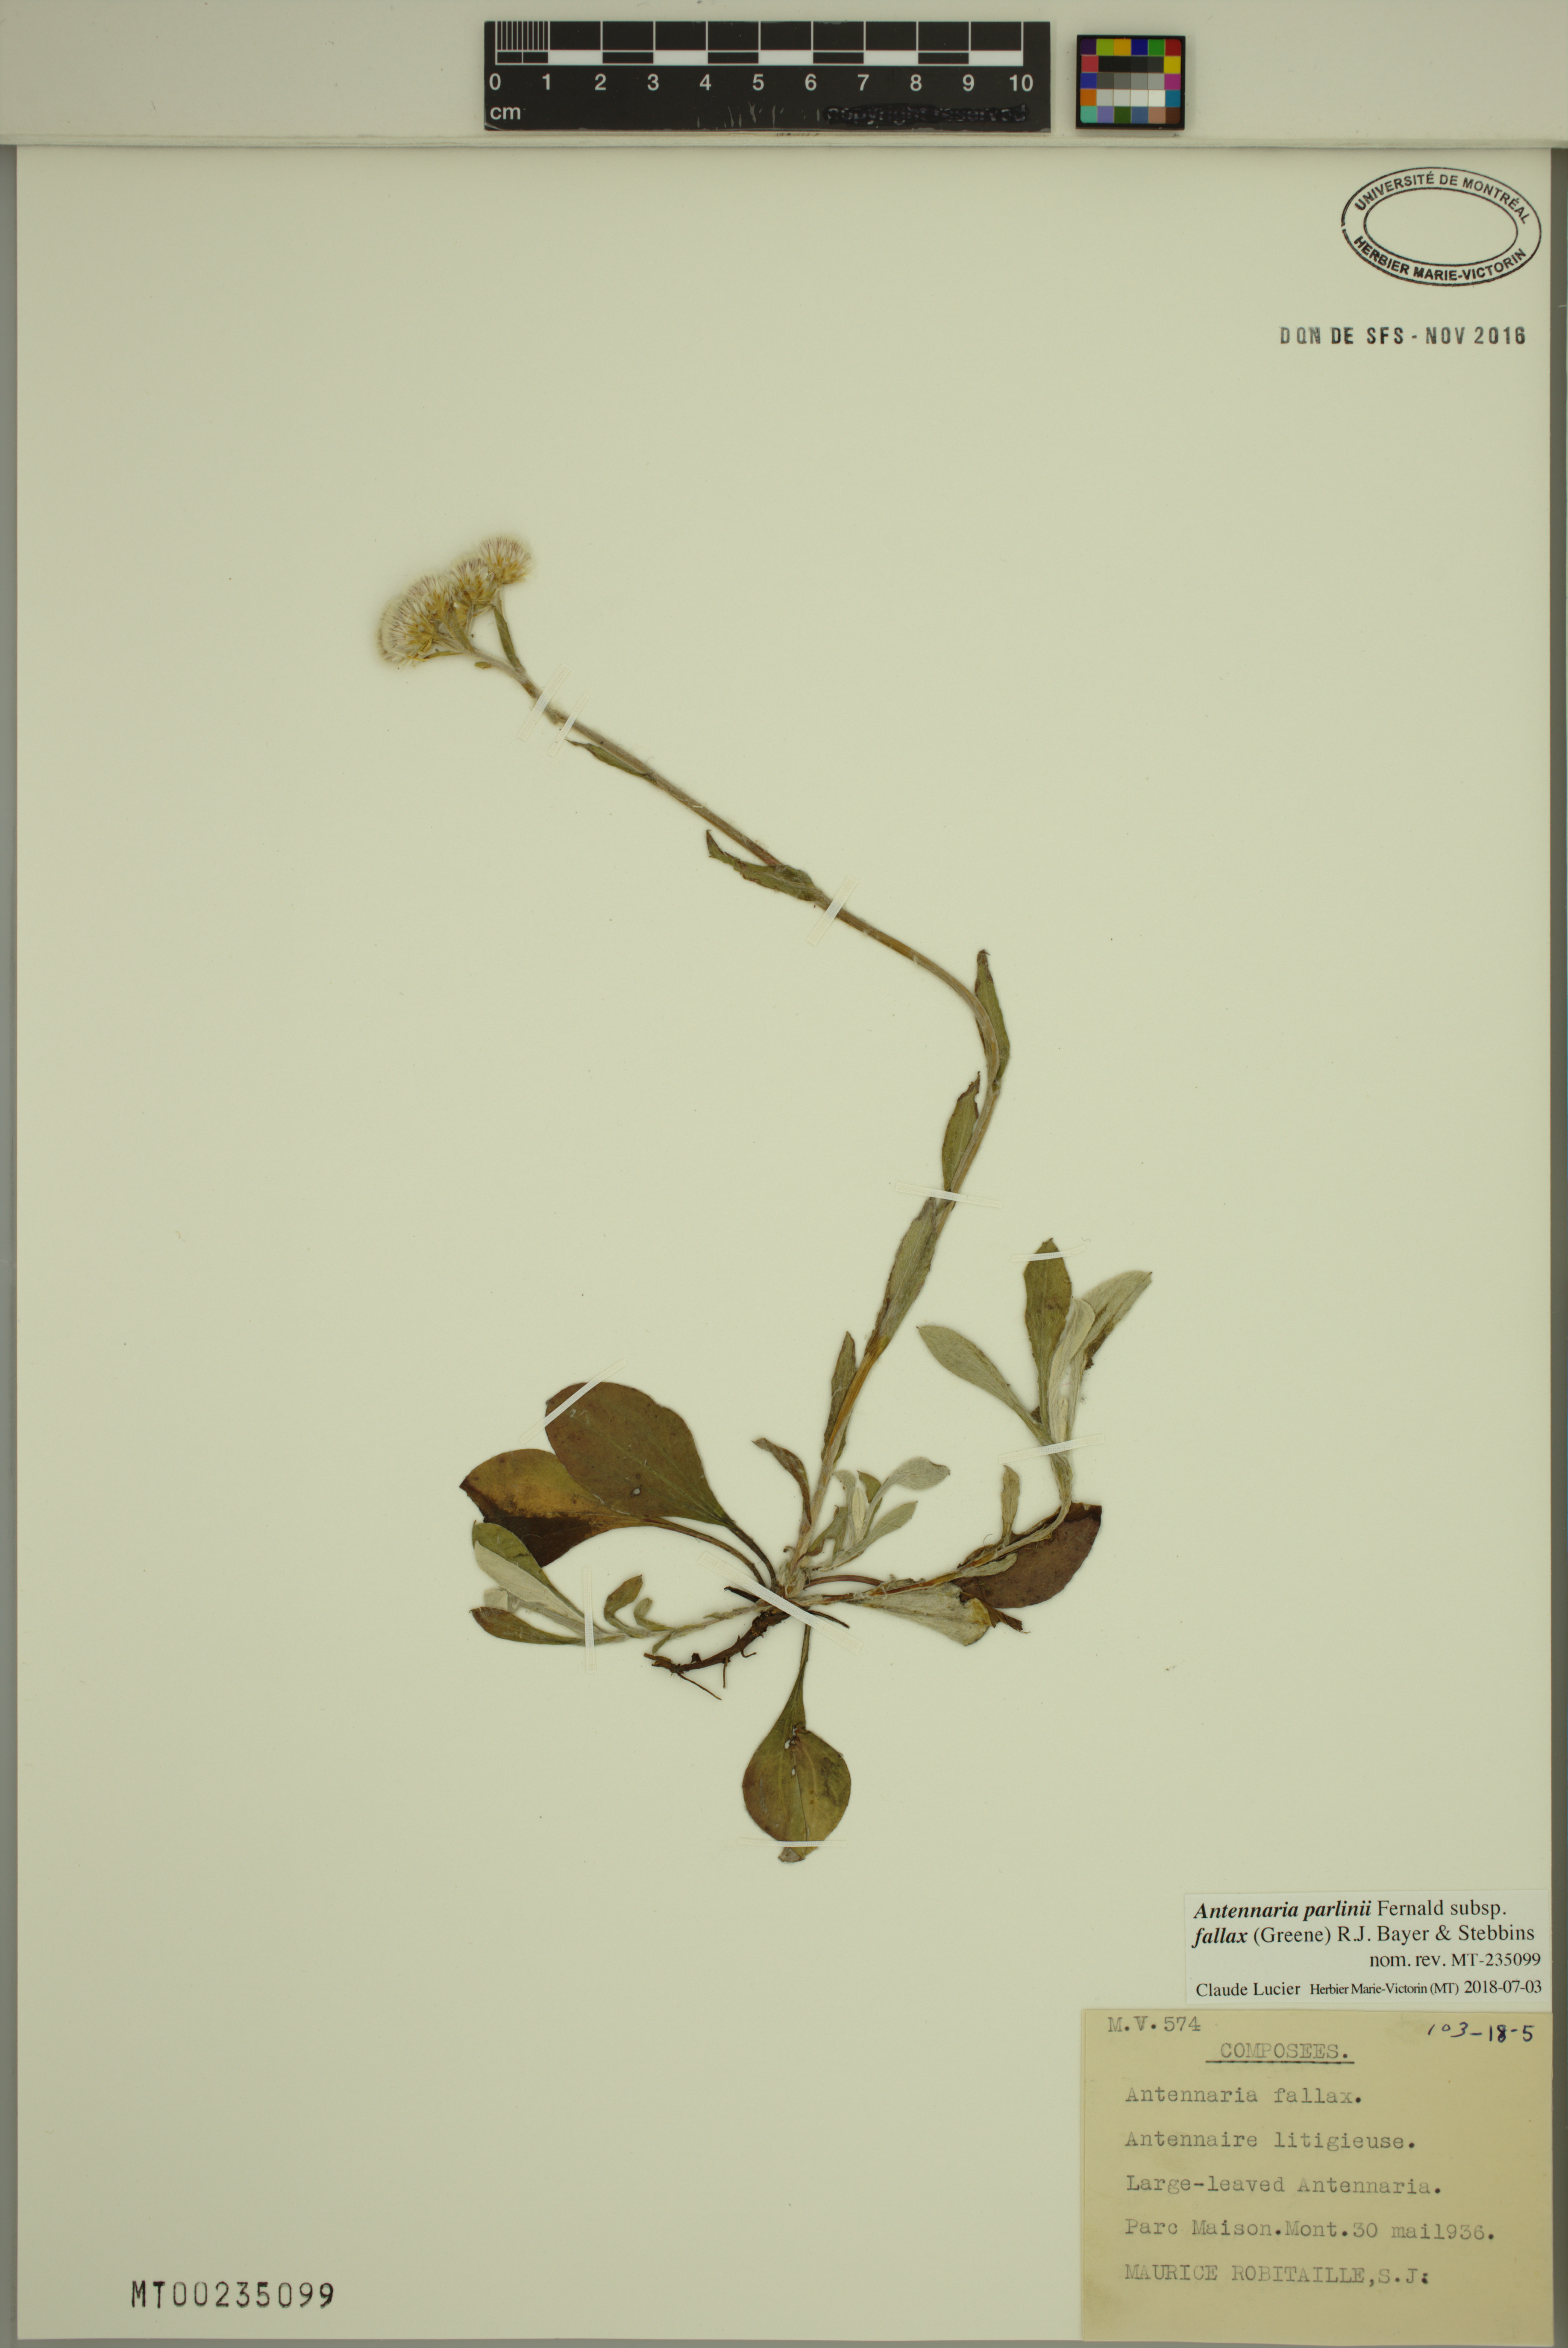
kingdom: Plantae
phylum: Tracheophyta
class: Magnoliopsida
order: Asterales
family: Asteraceae
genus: Antennaria
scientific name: Antennaria parlinii
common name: Parlin's pussytoes
